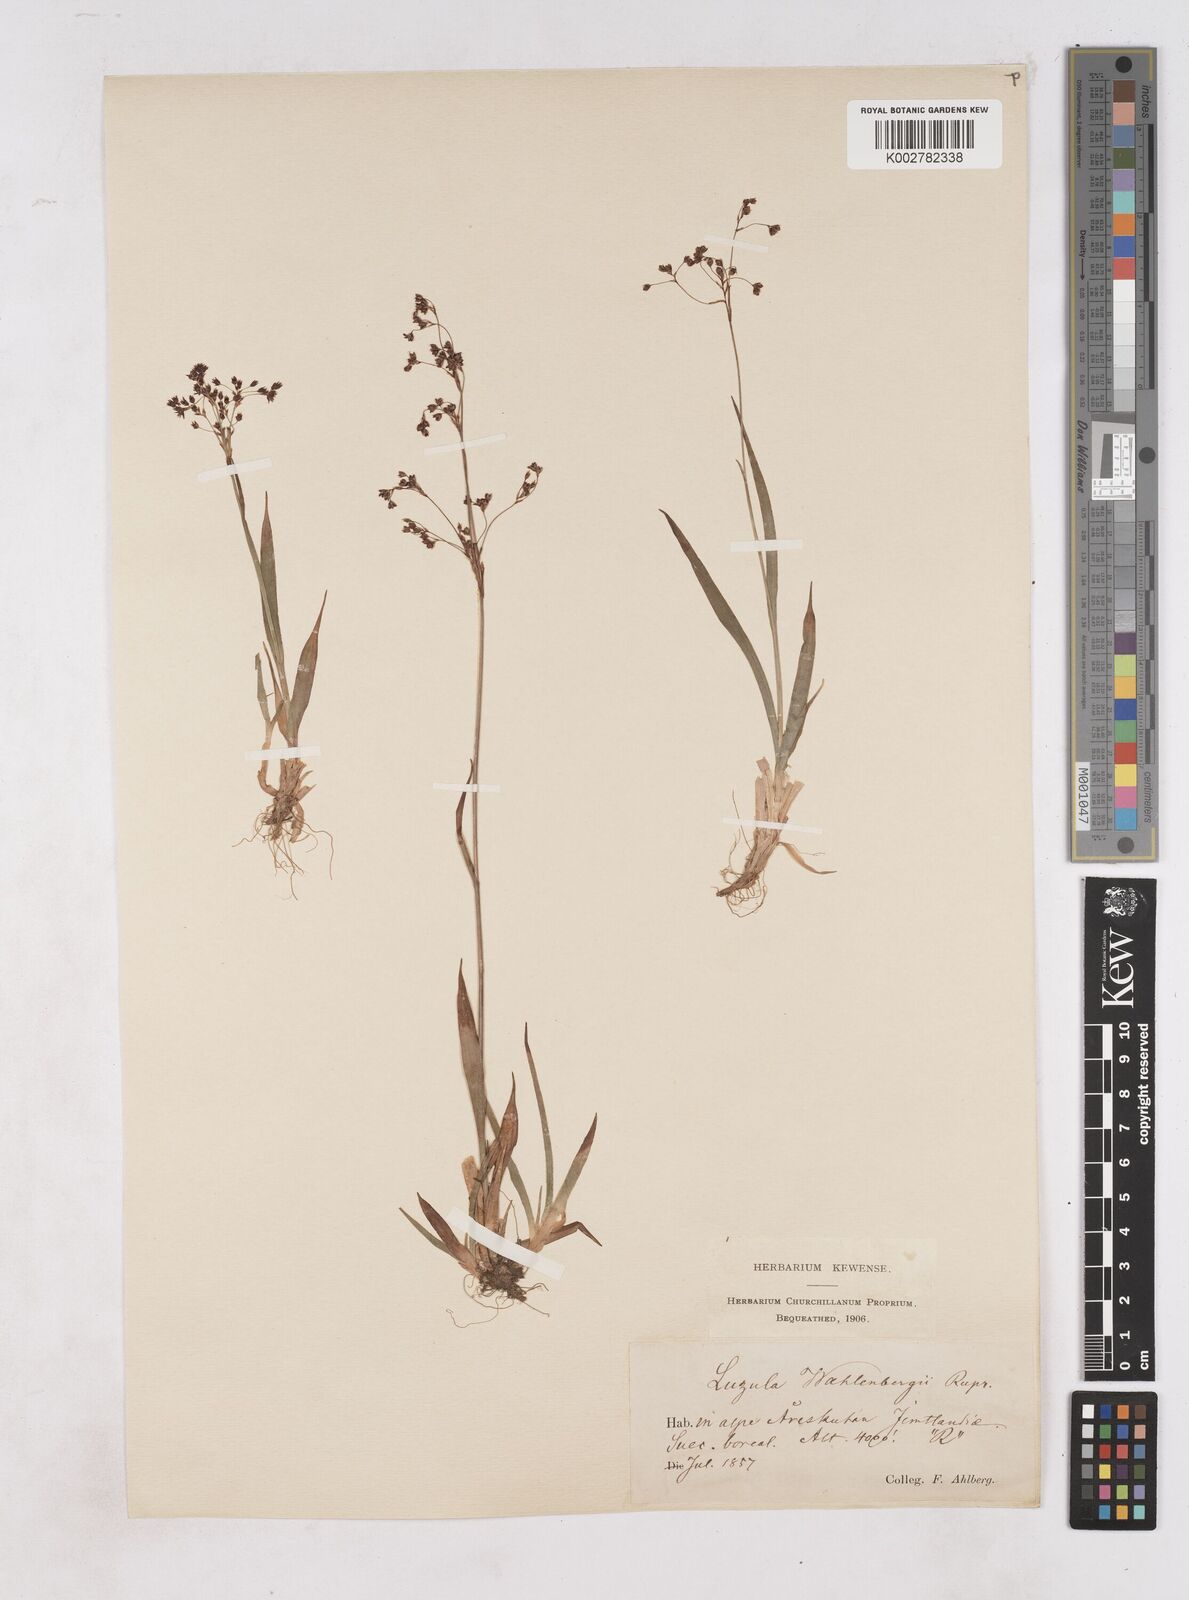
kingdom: Plantae
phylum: Tracheophyta
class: Liliopsida
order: Poales
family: Juncaceae
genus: Luzula
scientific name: Luzula alpinopilosa
